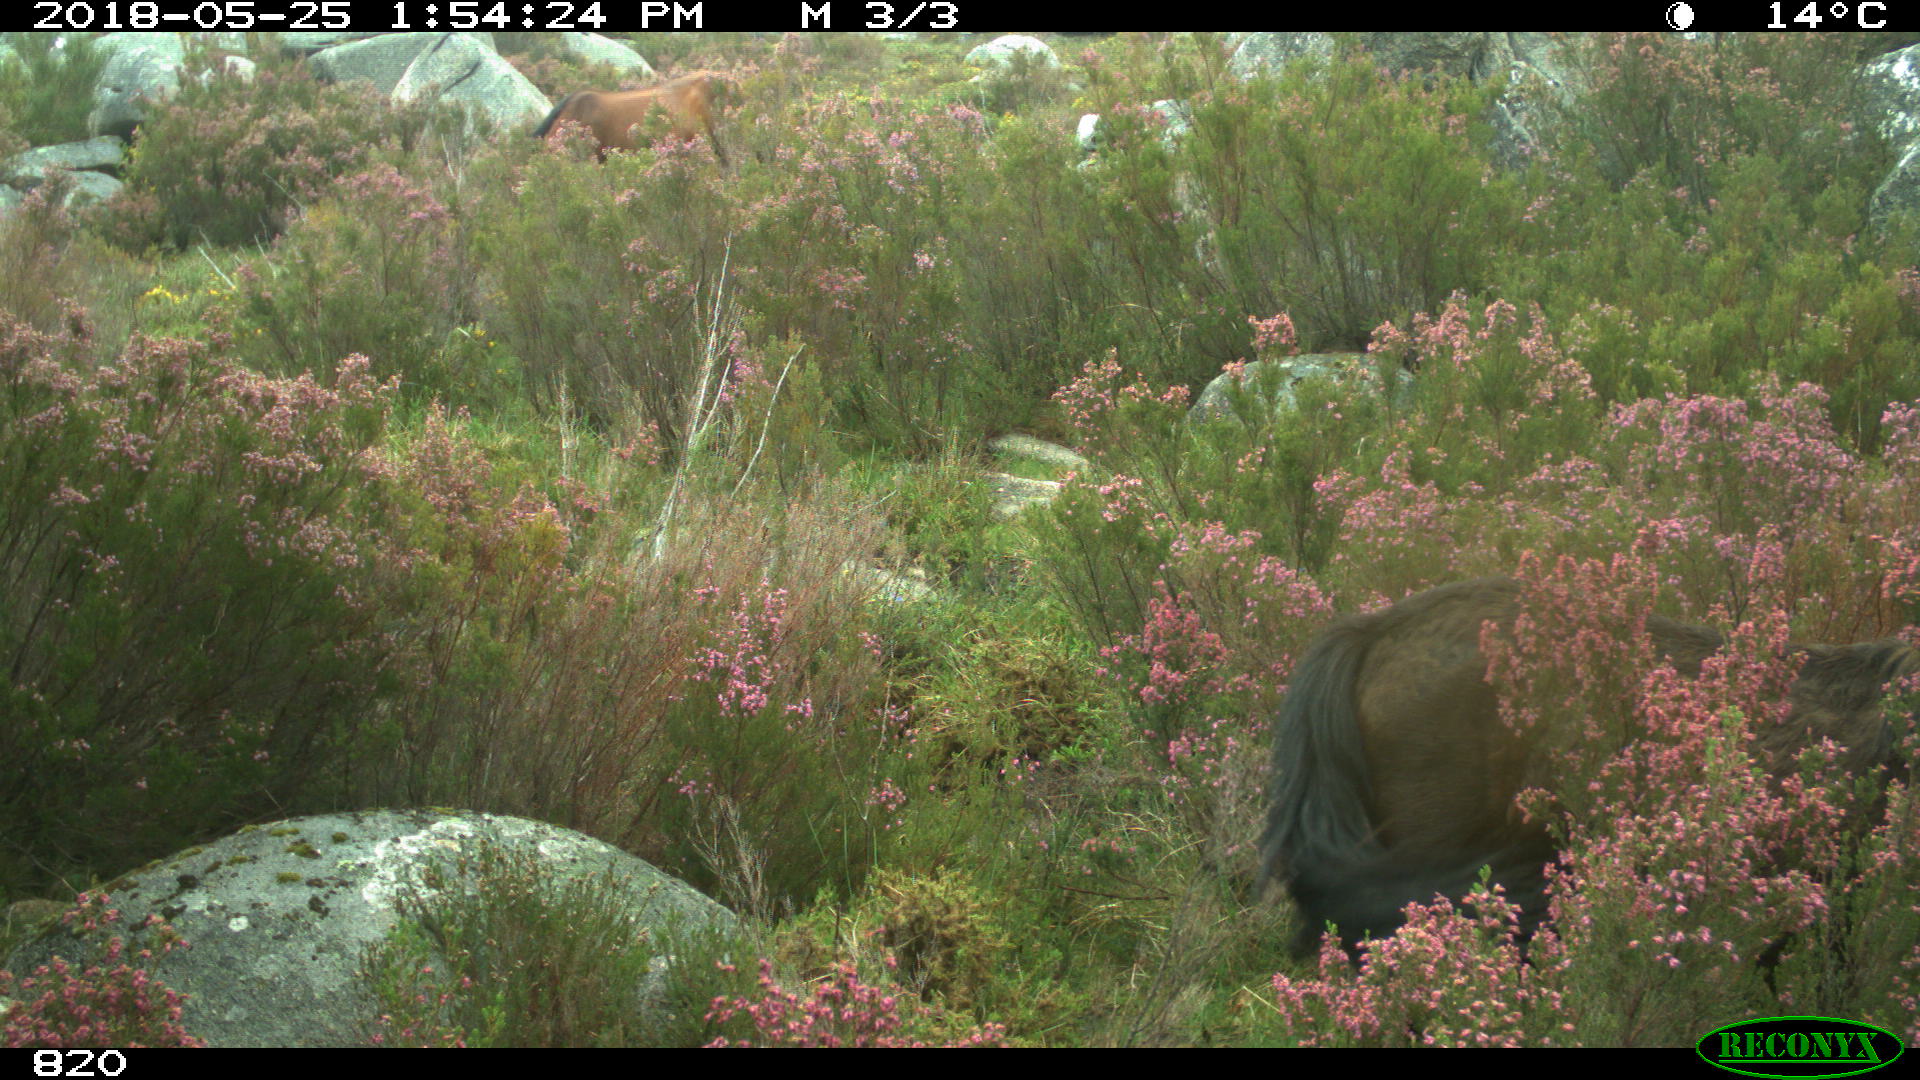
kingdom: Animalia
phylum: Chordata
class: Mammalia
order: Perissodactyla
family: Equidae
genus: Equus
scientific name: Equus caballus
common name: Horse
